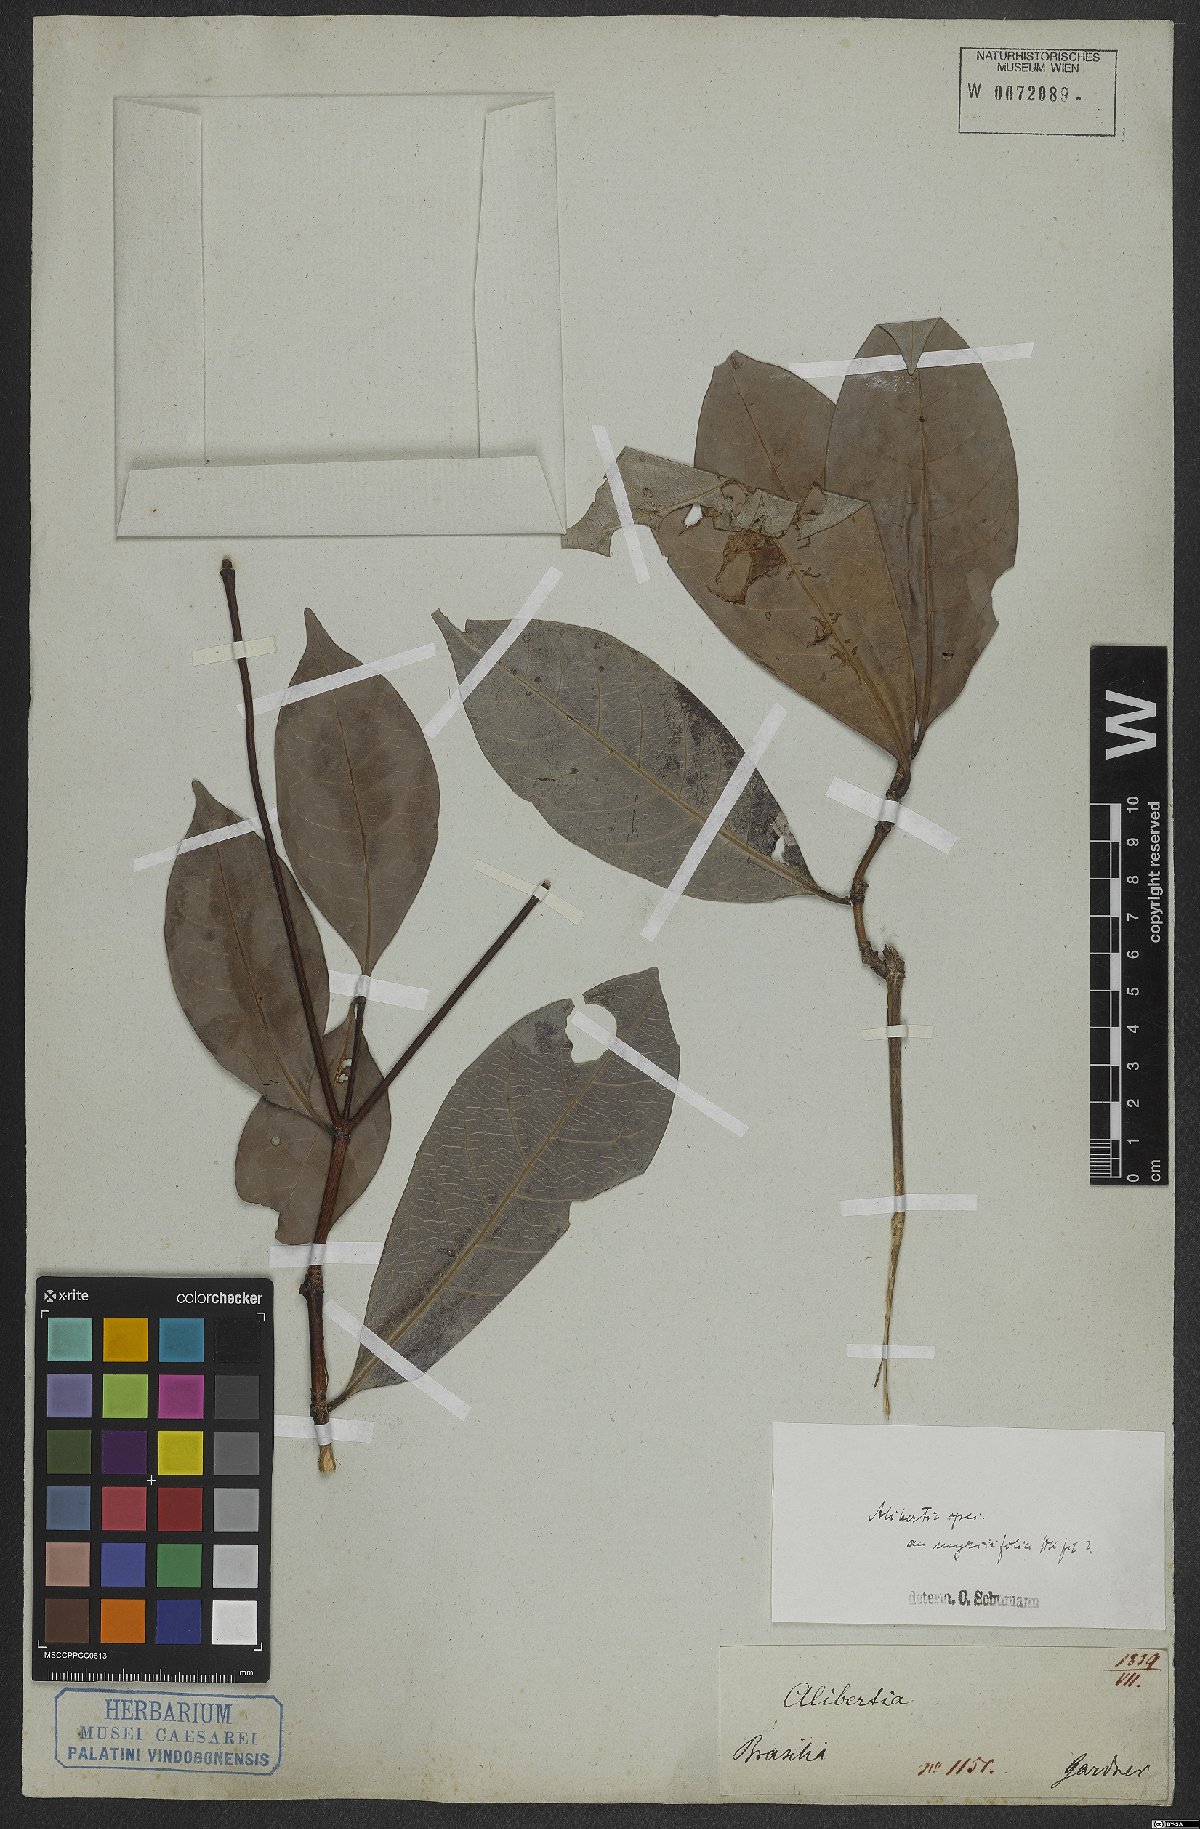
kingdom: Plantae
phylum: Tracheophyta
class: Magnoliopsida
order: Gentianales
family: Rubiaceae
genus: Cordiera
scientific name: Cordiera myrciifolia
